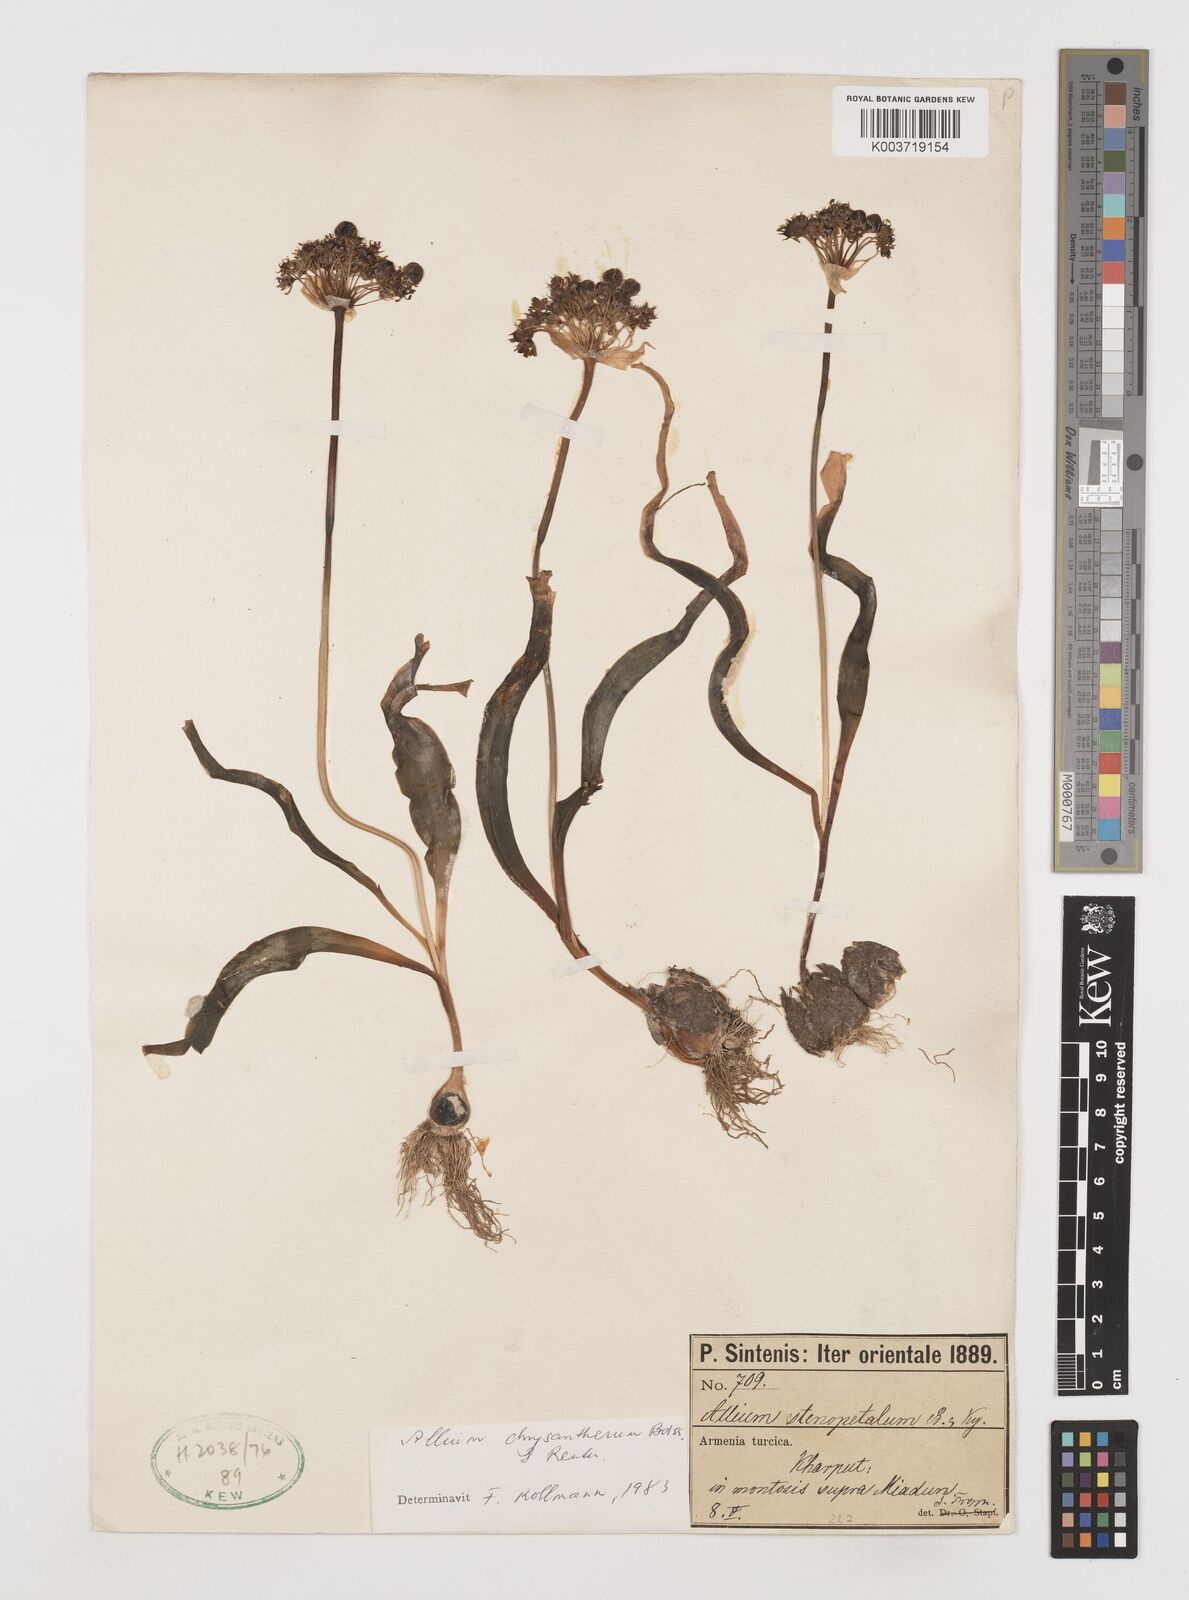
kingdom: Plantae
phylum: Tracheophyta
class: Liliopsida
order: Asparagales
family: Amaryllidaceae
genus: Allium
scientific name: Allium chrysantherum
